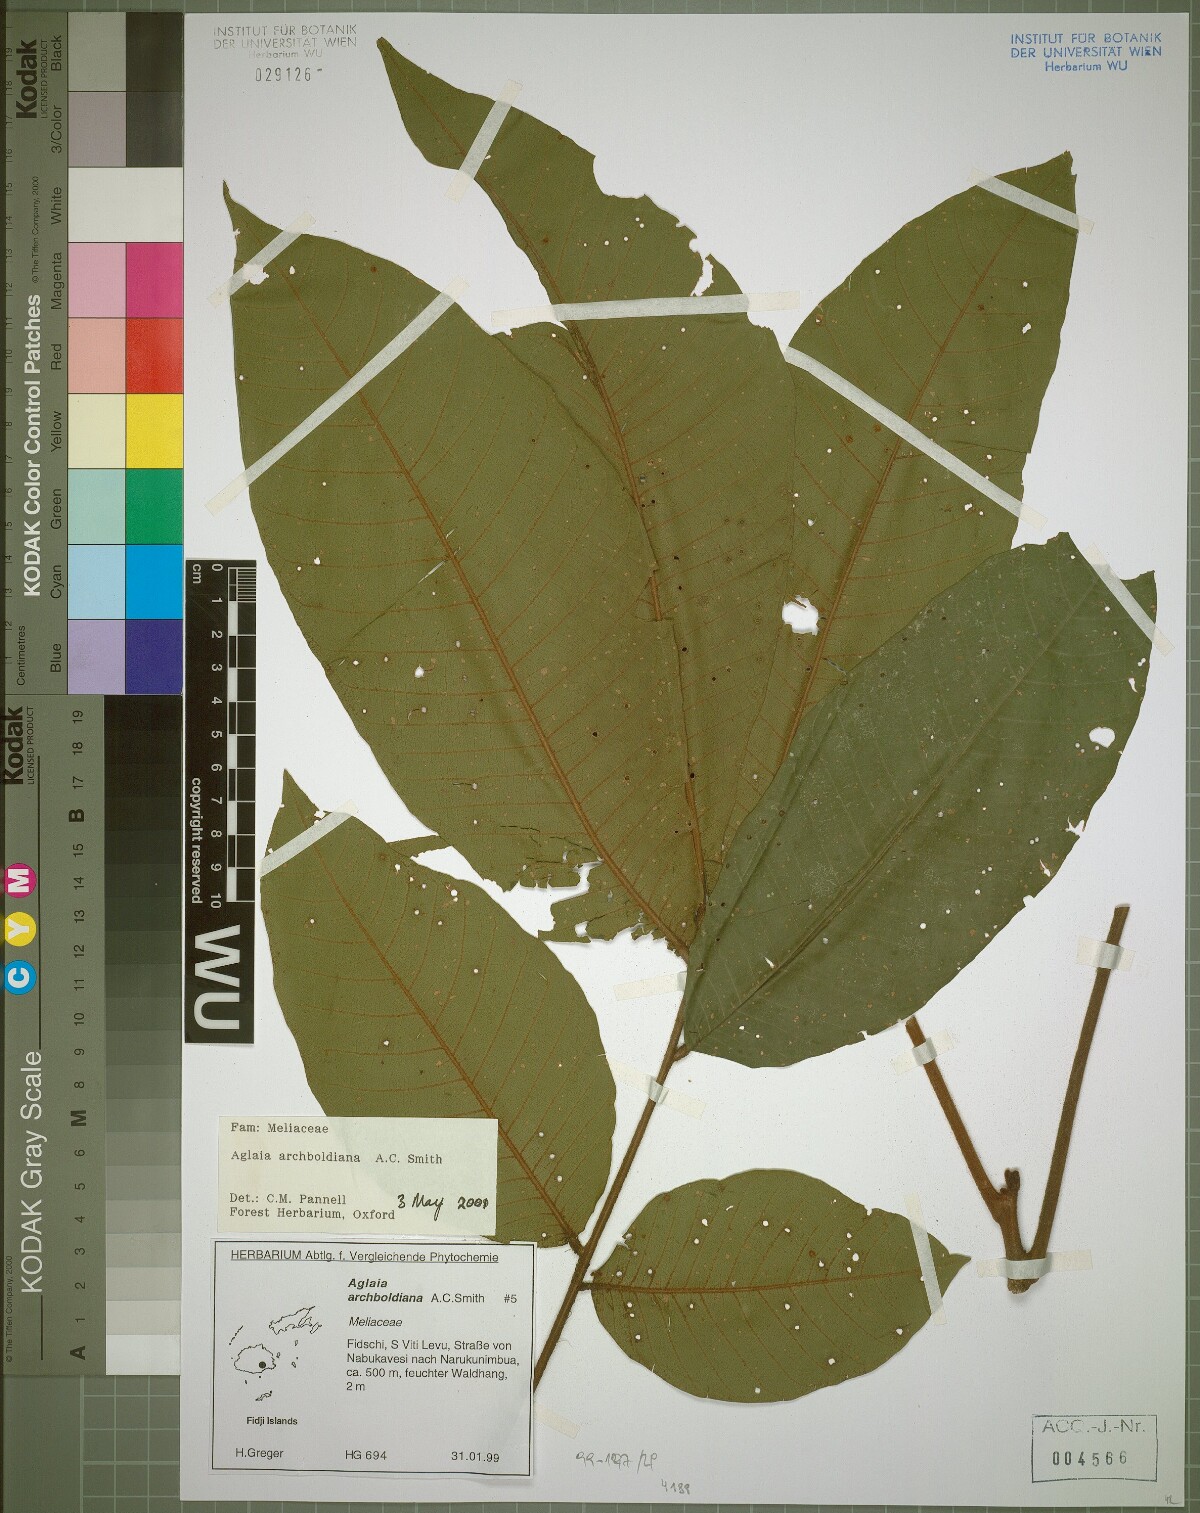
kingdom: Plantae
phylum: Tracheophyta
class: Magnoliopsida
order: Sapindales
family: Meliaceae
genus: Aglaia
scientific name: Aglaia archboldiana
